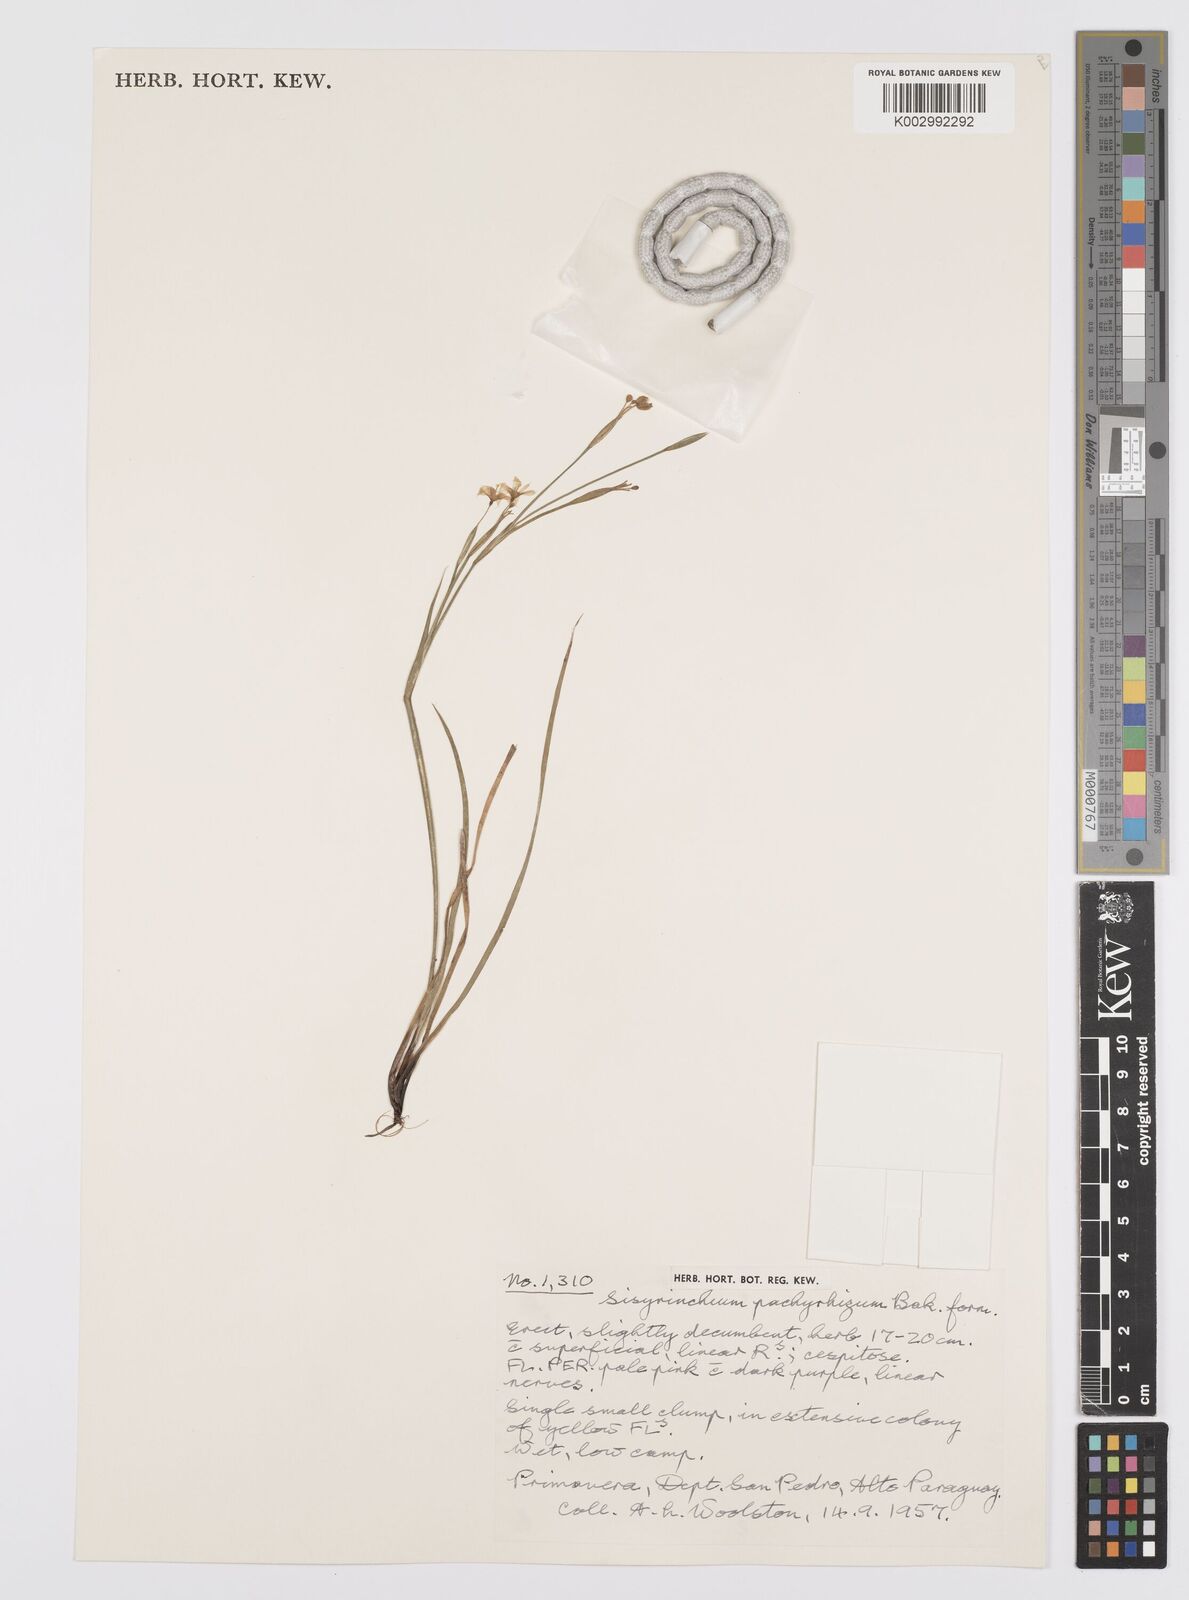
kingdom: Plantae
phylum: Tracheophyta
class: Liliopsida
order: Asparagales
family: Iridaceae
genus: Sisyrinchium
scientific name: Sisyrinchium pachyrhizum
